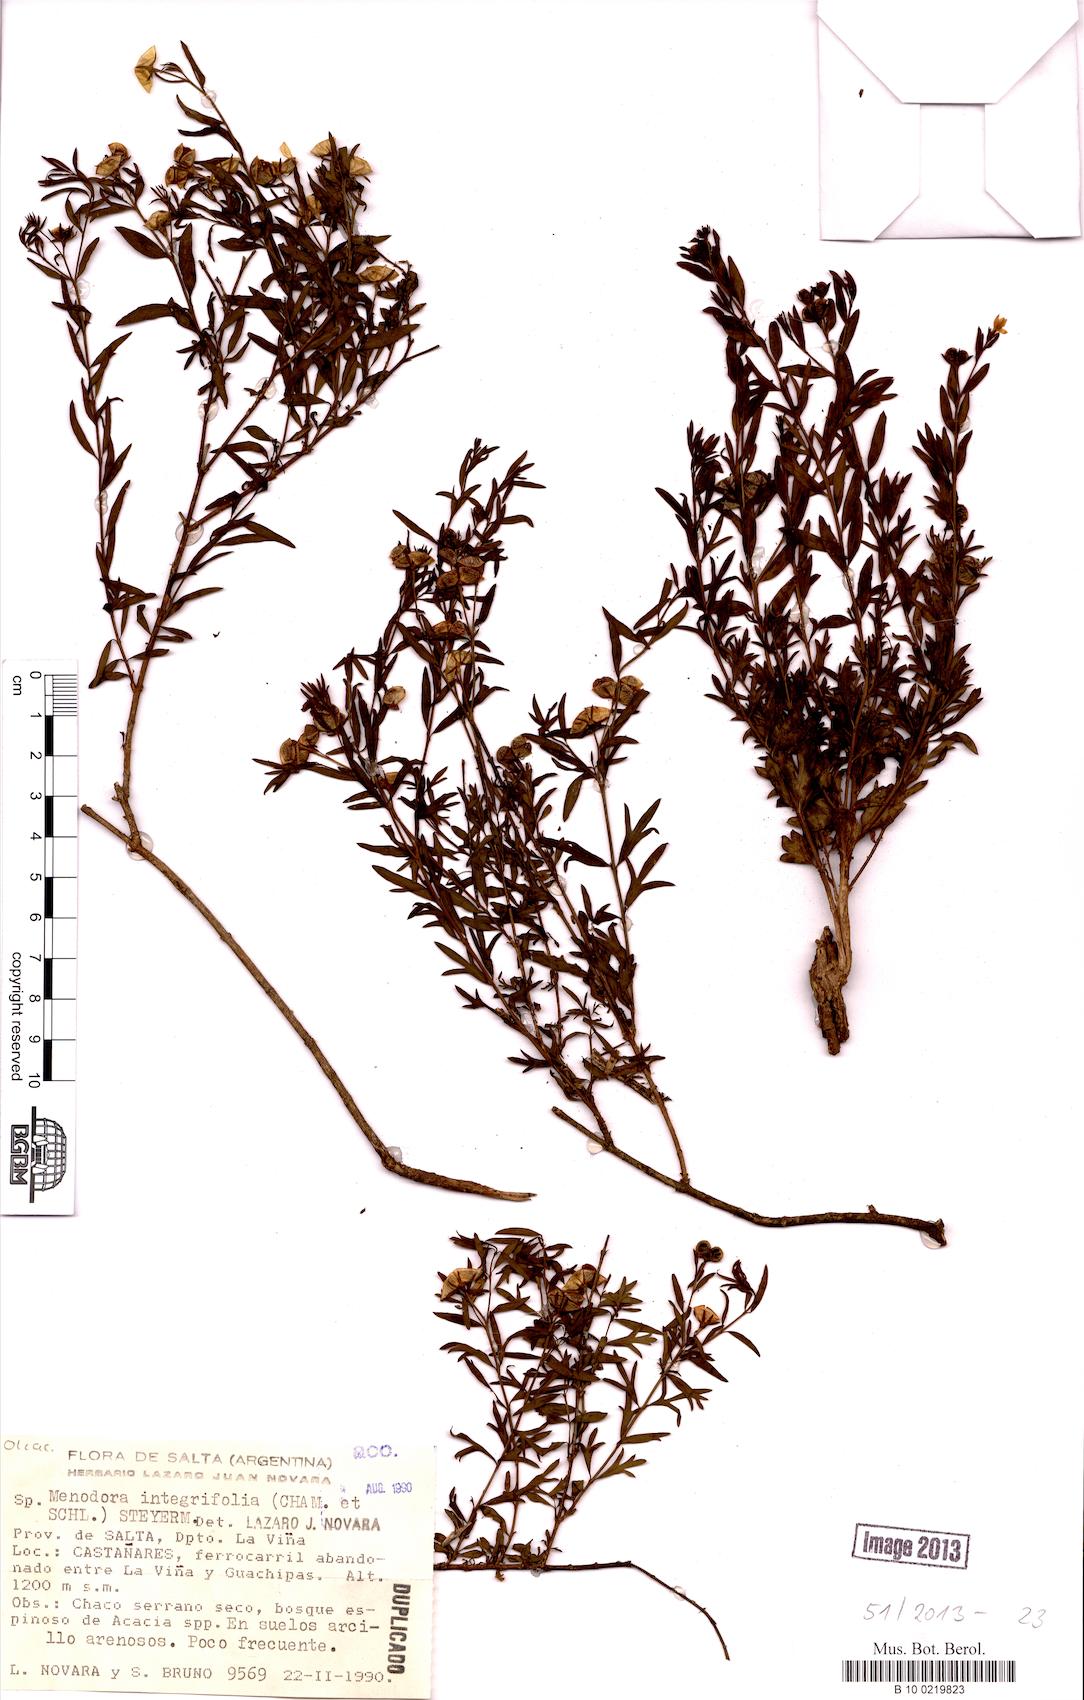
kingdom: Plantae
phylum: Tracheophyta
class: Magnoliopsida
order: Lamiales
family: Oleaceae
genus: Menodora
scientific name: Menodora integrifolia
